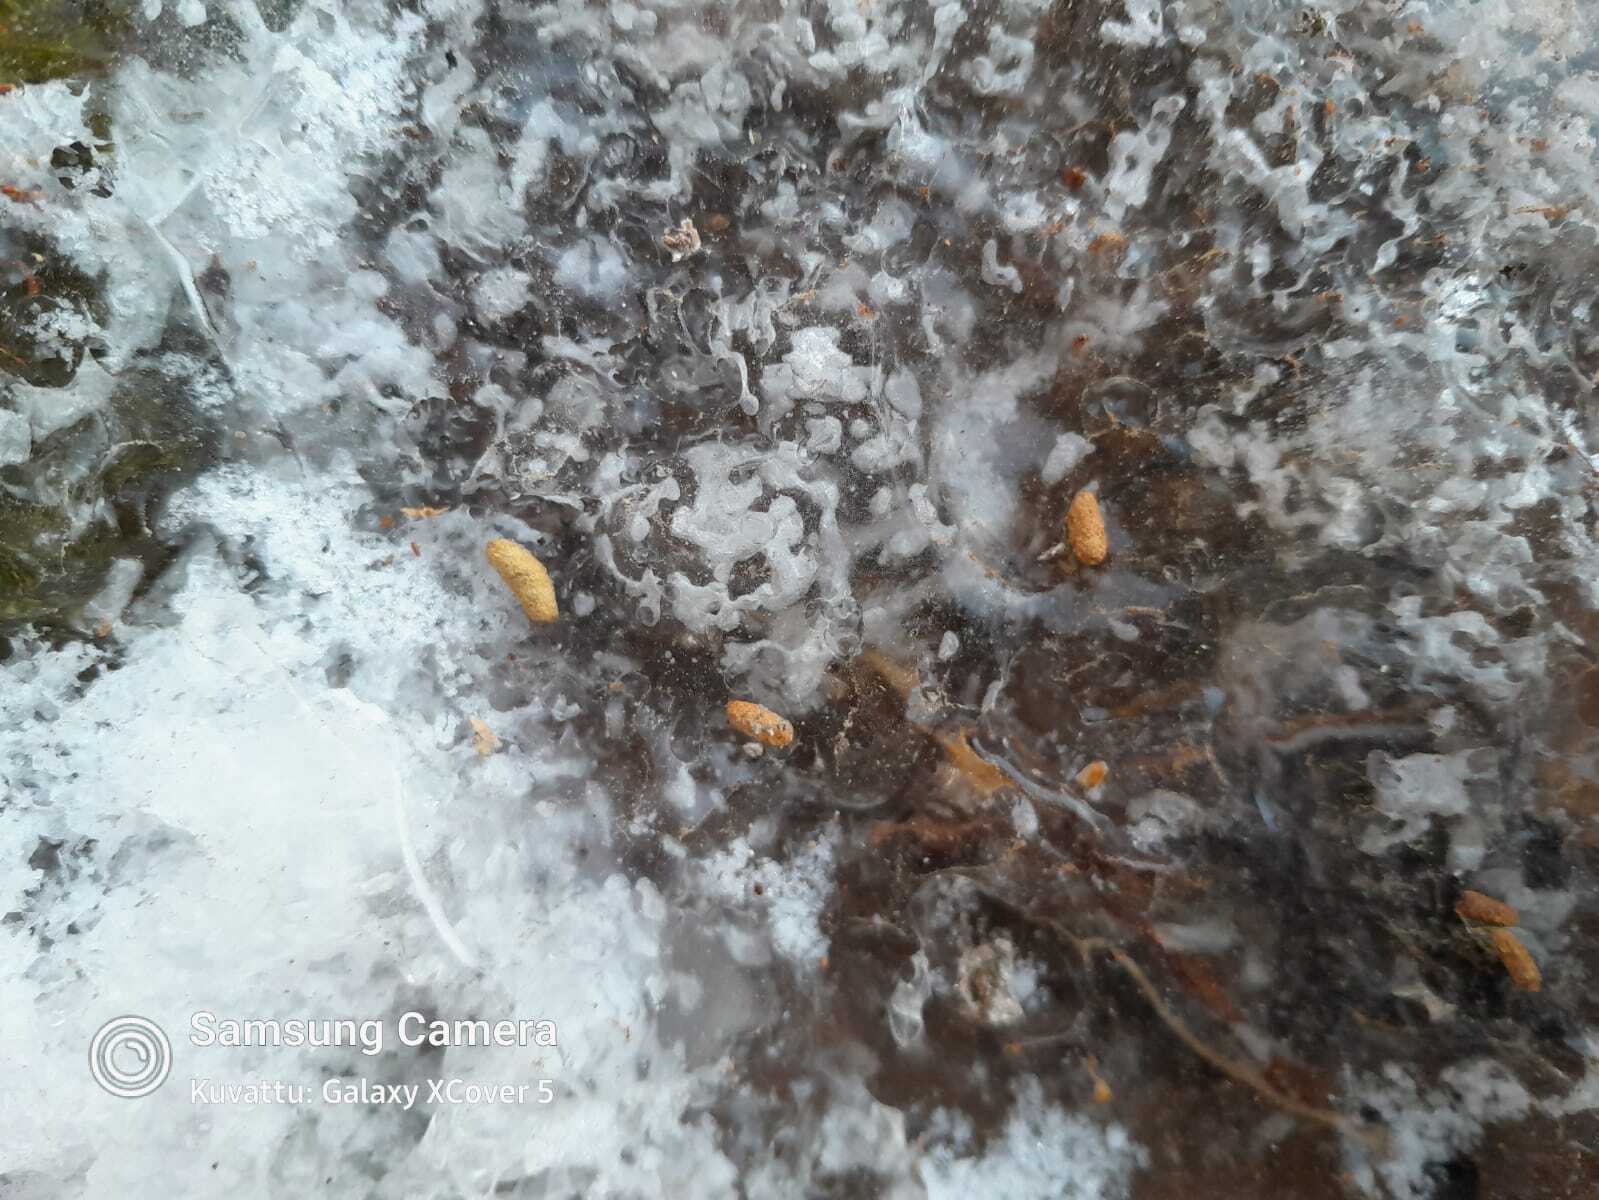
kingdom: Animalia
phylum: Chordata
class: Mammalia
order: Rodentia
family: Sciuridae
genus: Pteromys
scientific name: Pteromys volans
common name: Siberian flying squirrel
